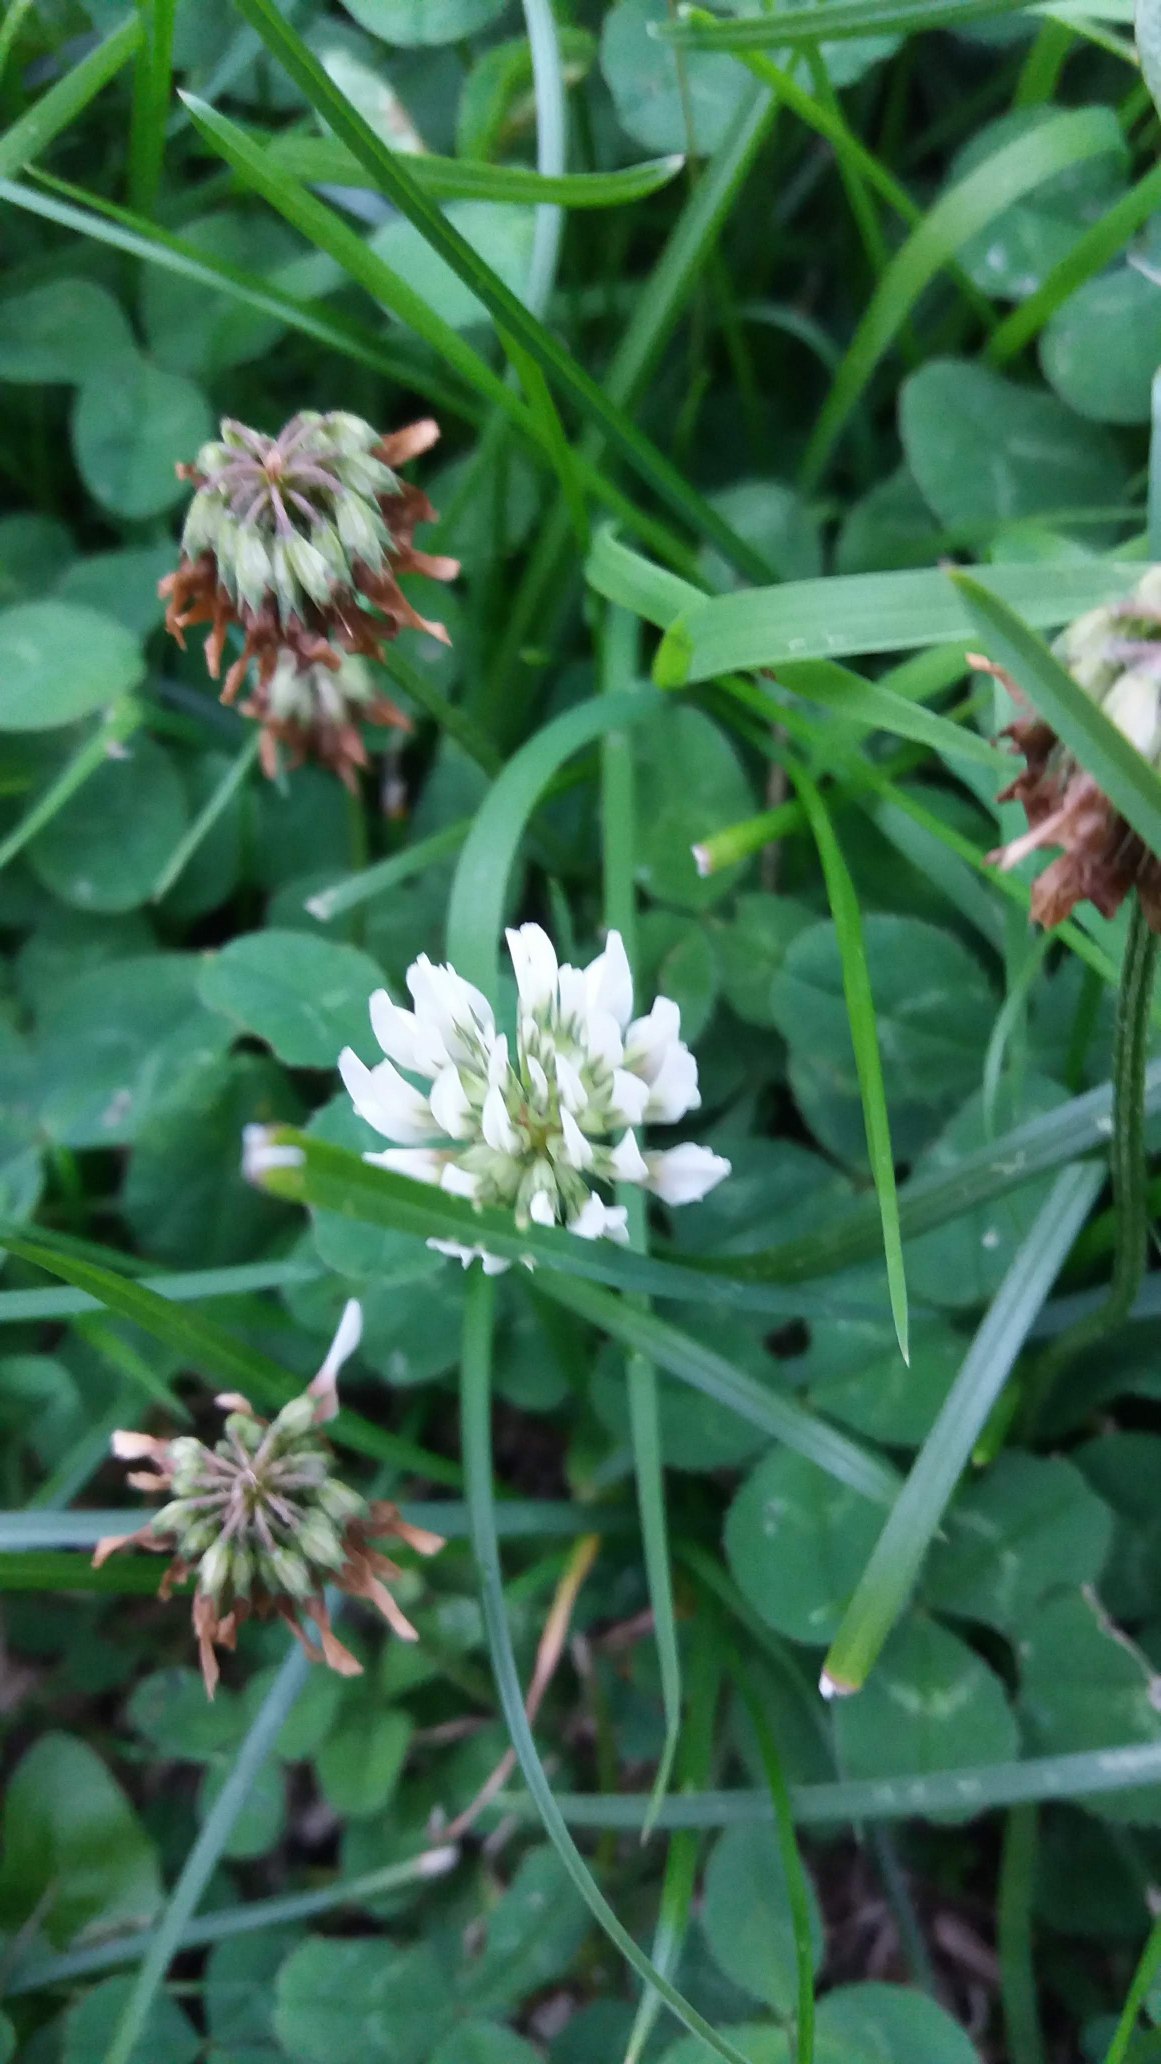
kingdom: Plantae
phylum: Tracheophyta
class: Magnoliopsida
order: Fabales
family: Fabaceae
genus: Trifolium
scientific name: Trifolium repens
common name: Hvid-kløver
